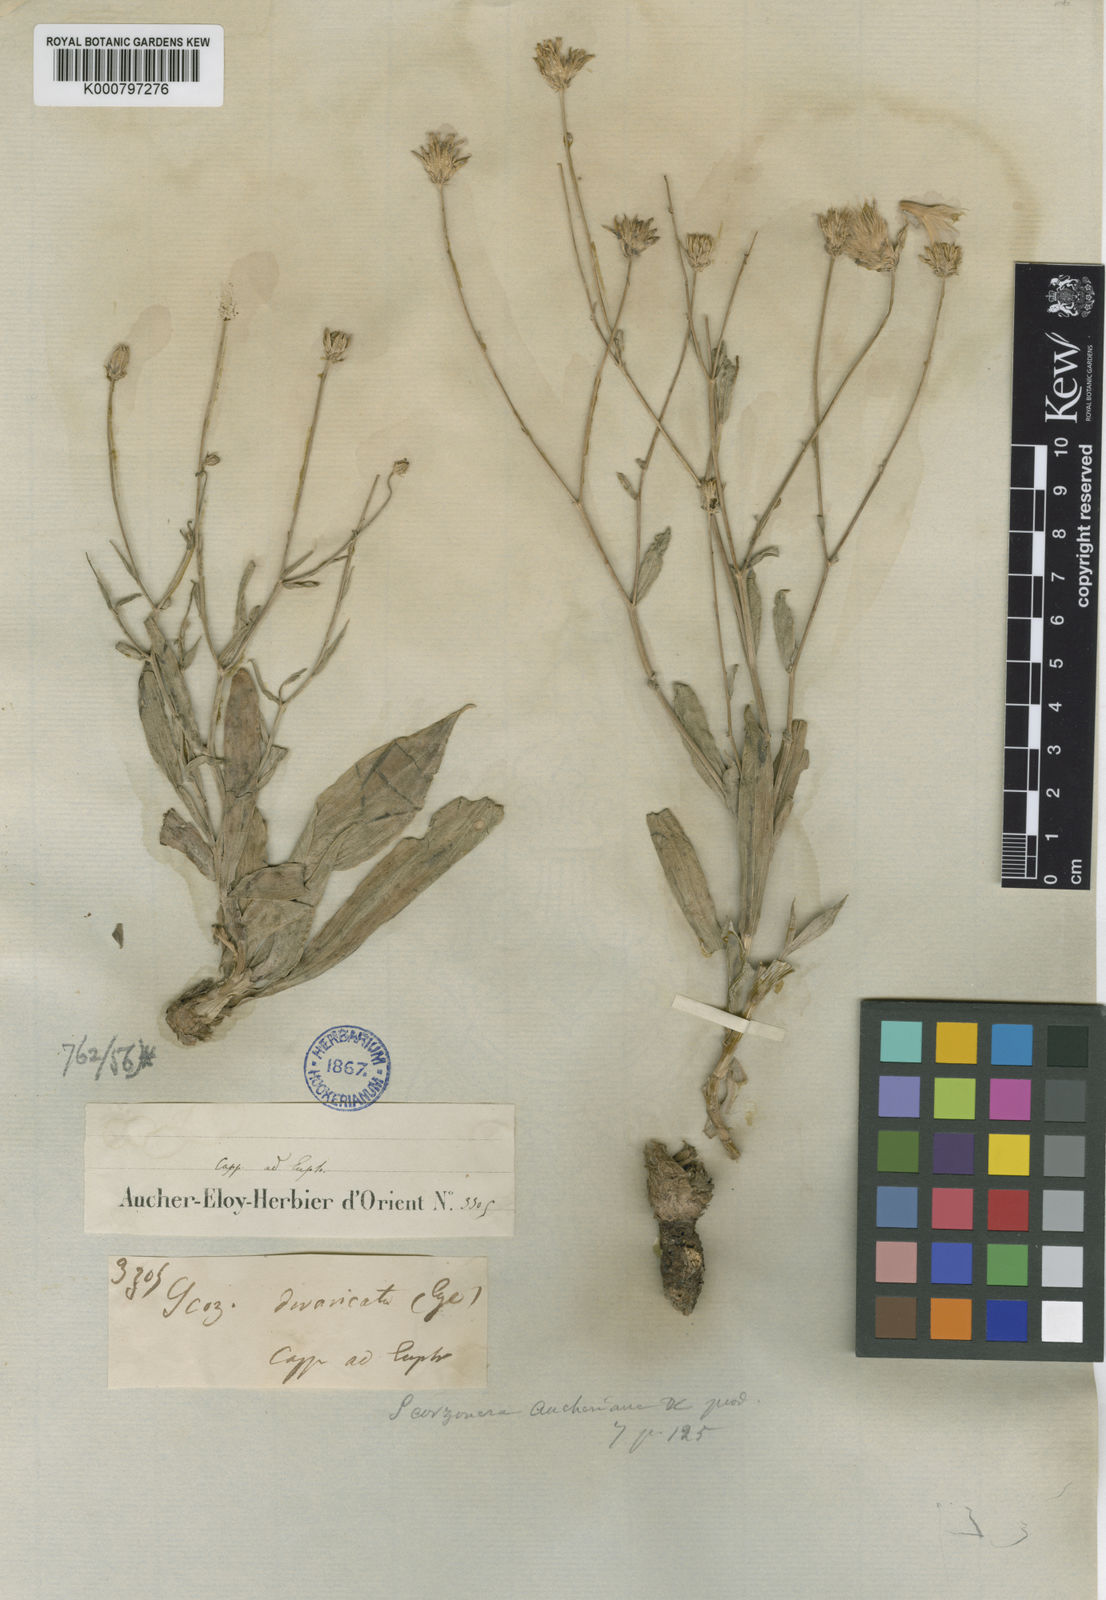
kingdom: Plantae
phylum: Tracheophyta
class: Magnoliopsida
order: Asterales
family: Asteraceae
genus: Ramaliella
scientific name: Ramaliella aucheriana
